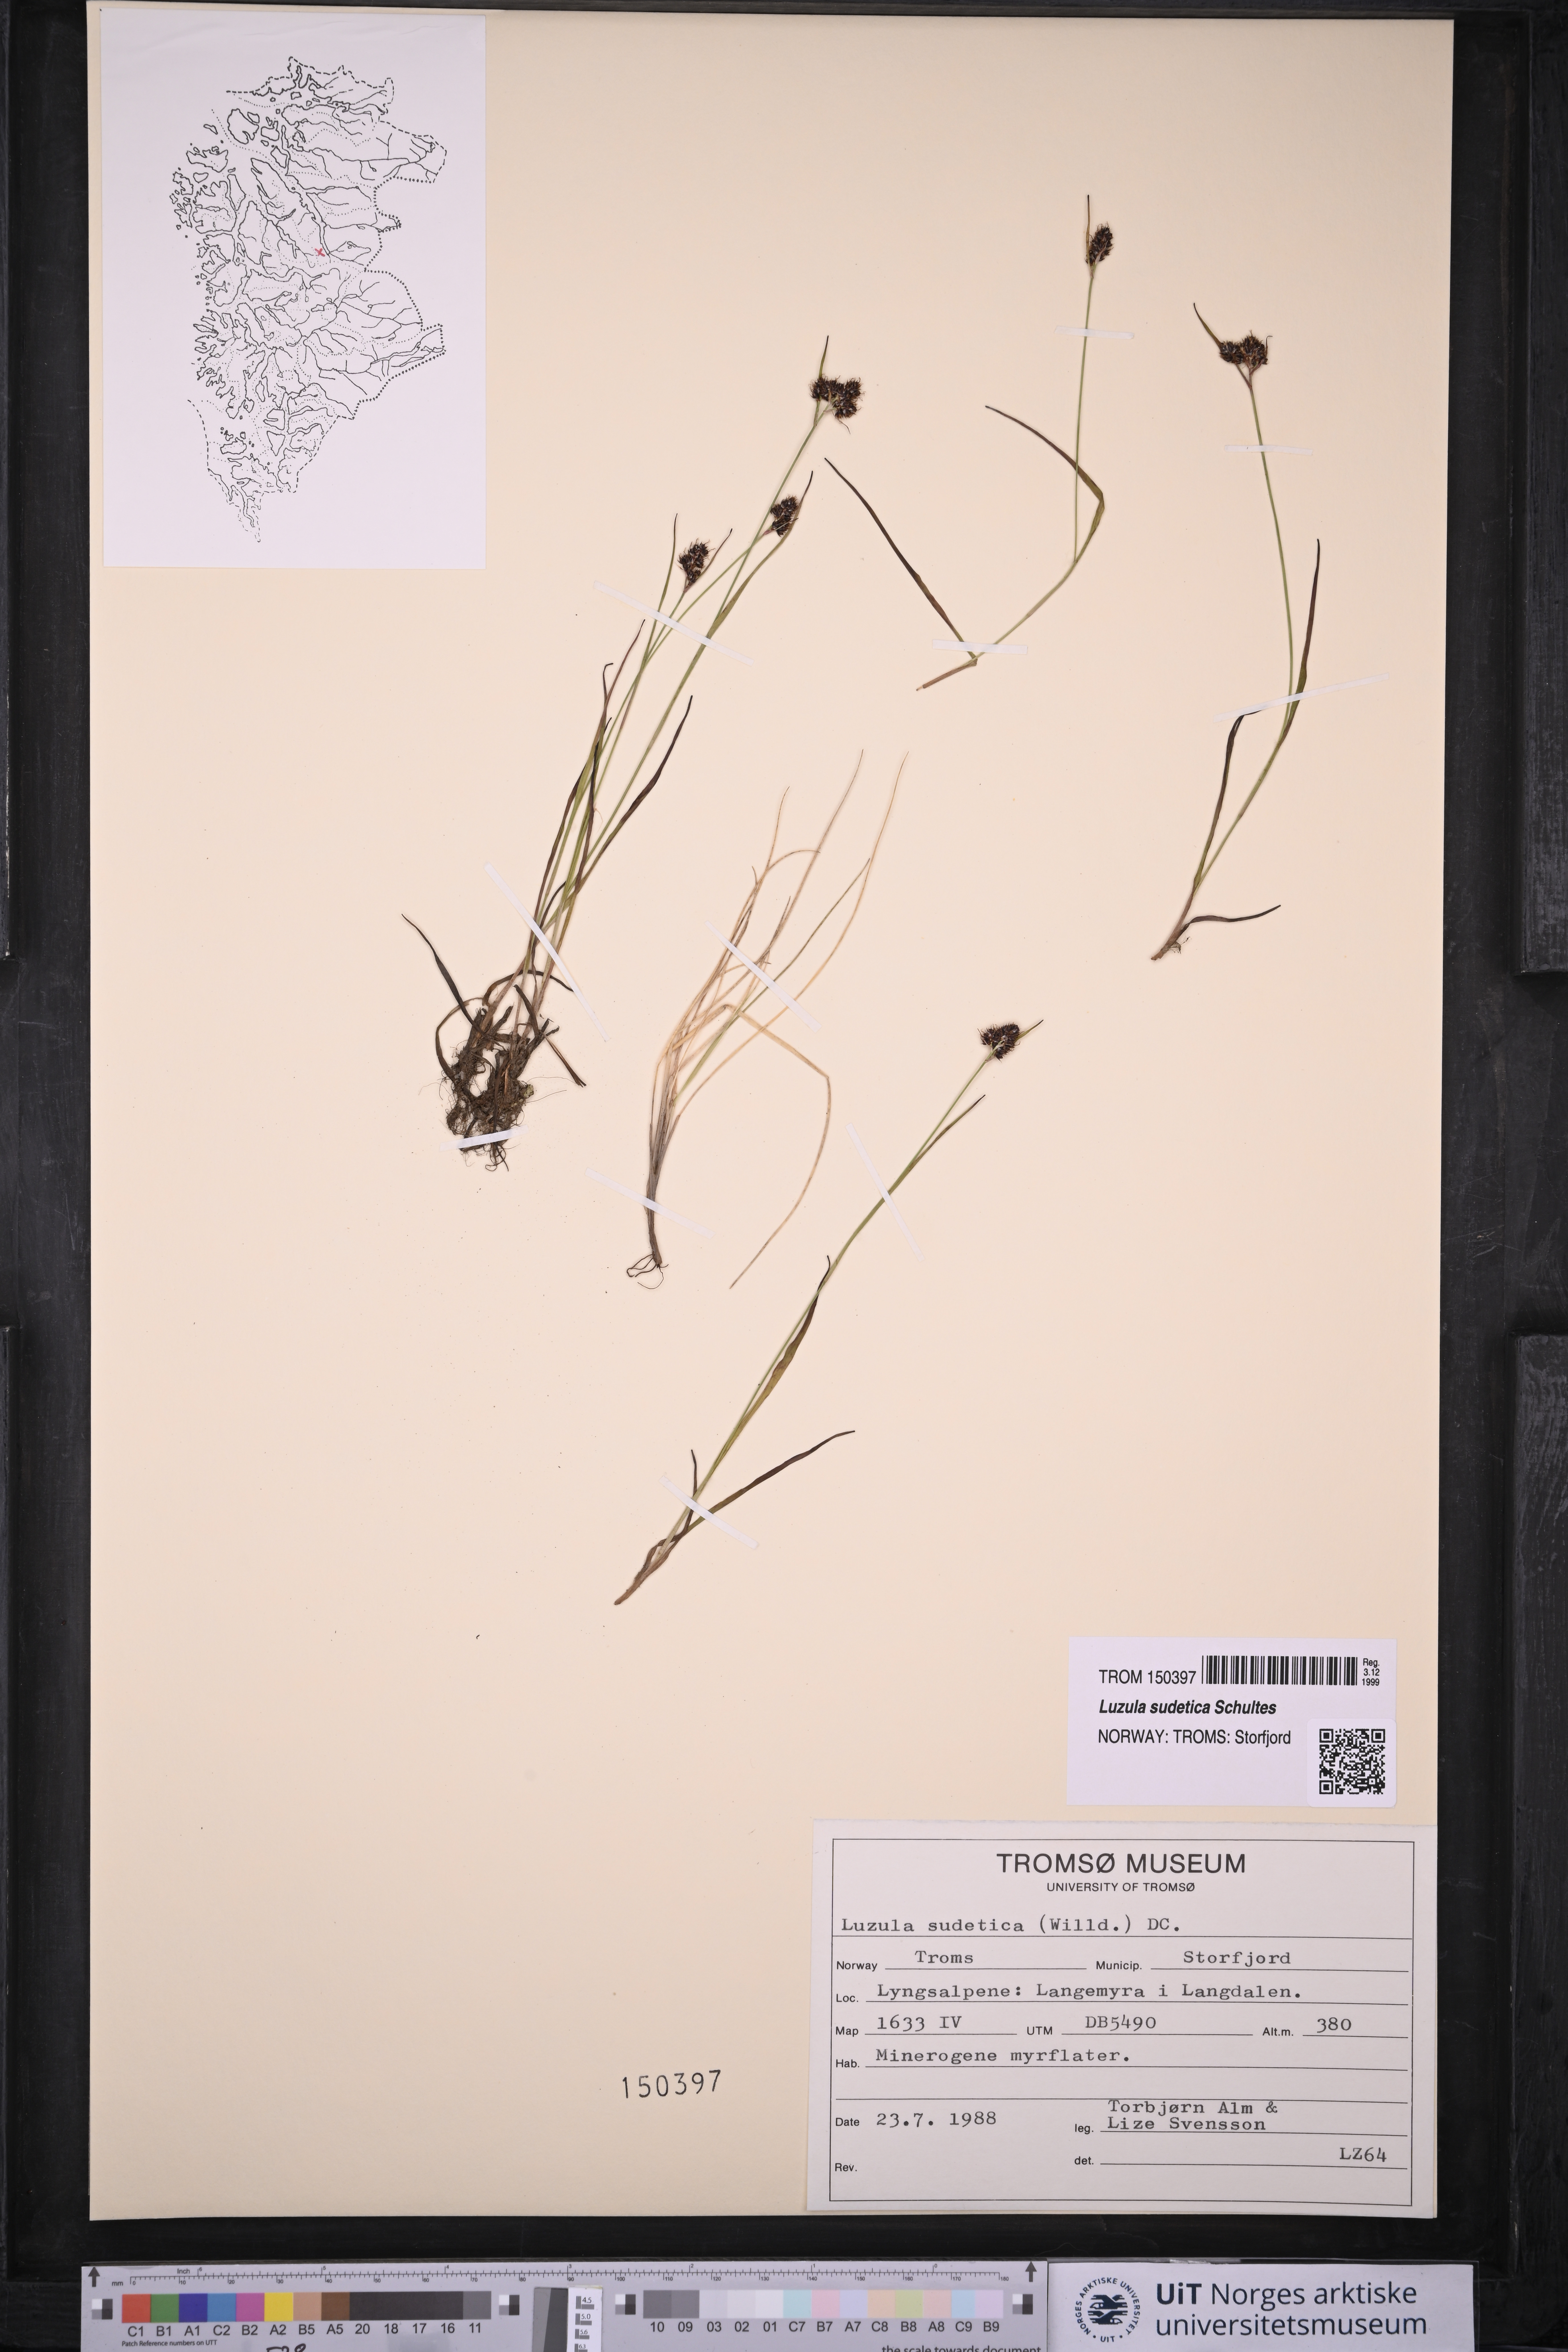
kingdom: Plantae
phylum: Tracheophyta
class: Liliopsida
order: Poales
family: Juncaceae
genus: Luzula
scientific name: Luzula sudetica
